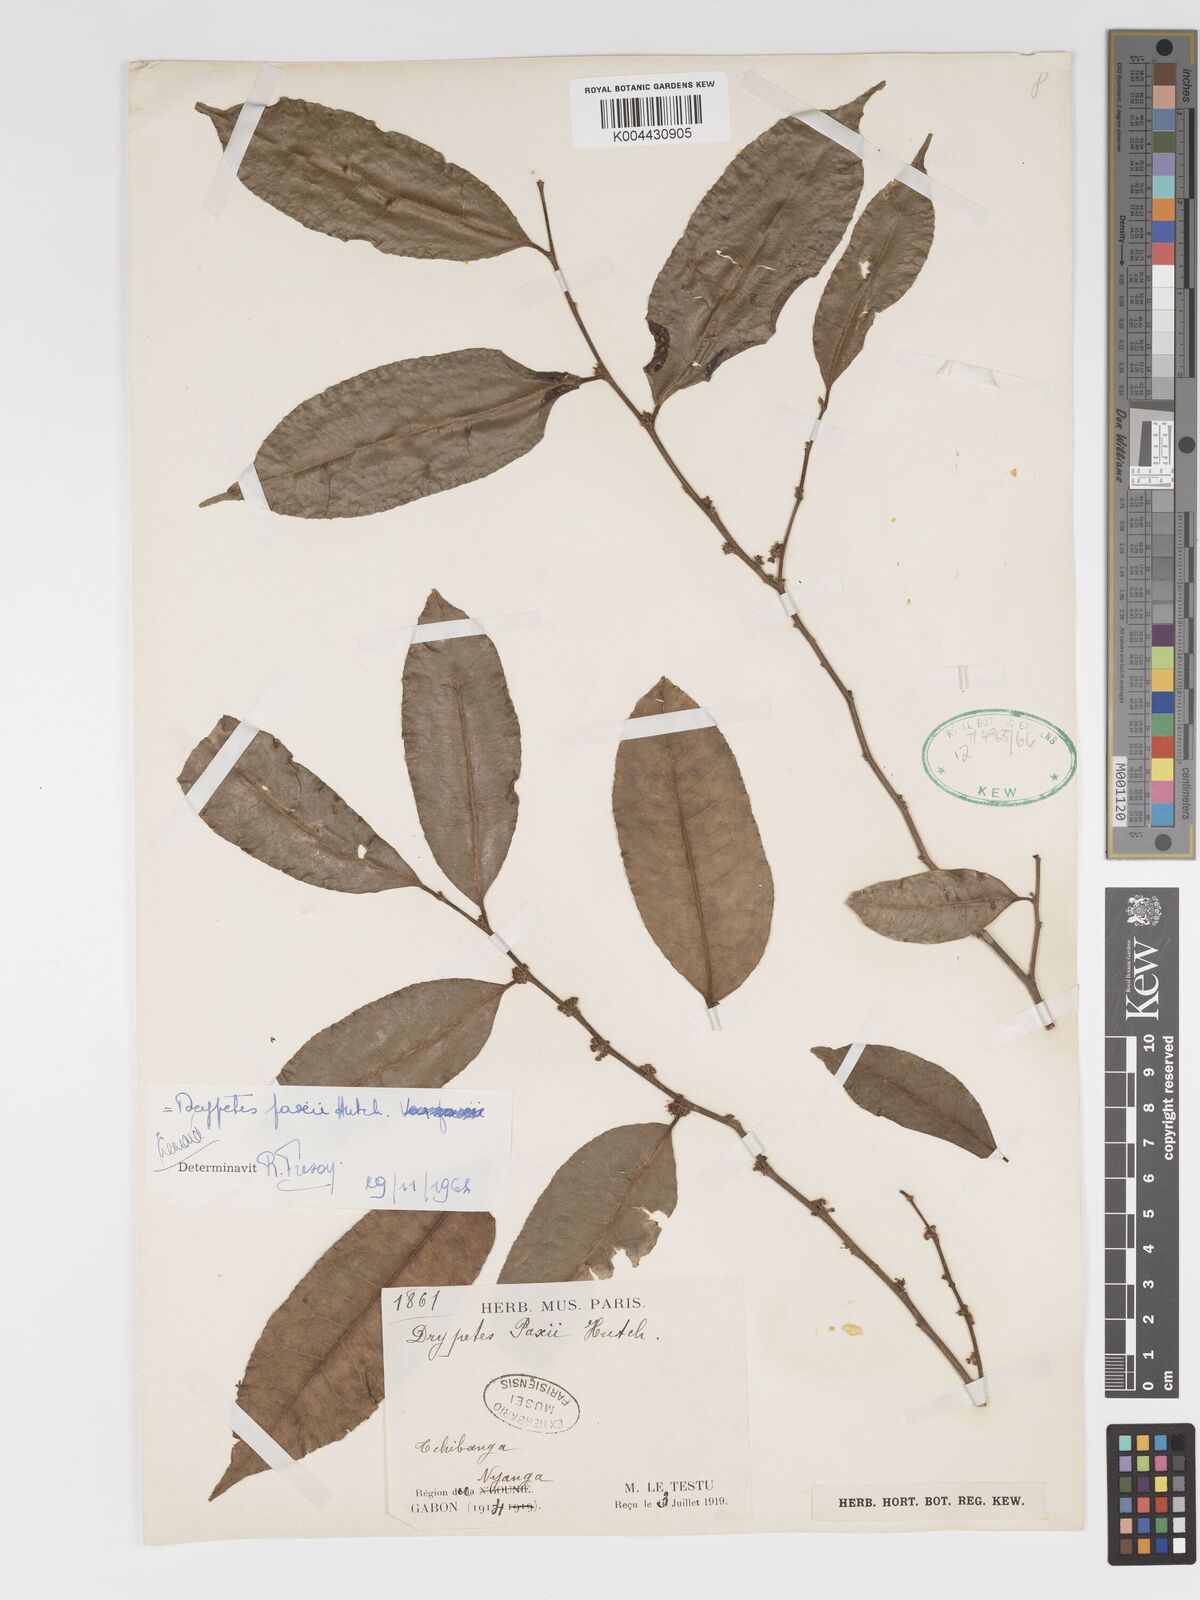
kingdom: Plantae
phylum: Tracheophyta
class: Magnoliopsida
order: Malpighiales
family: Putranjivaceae
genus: Drypetes
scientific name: Drypetes paxii
